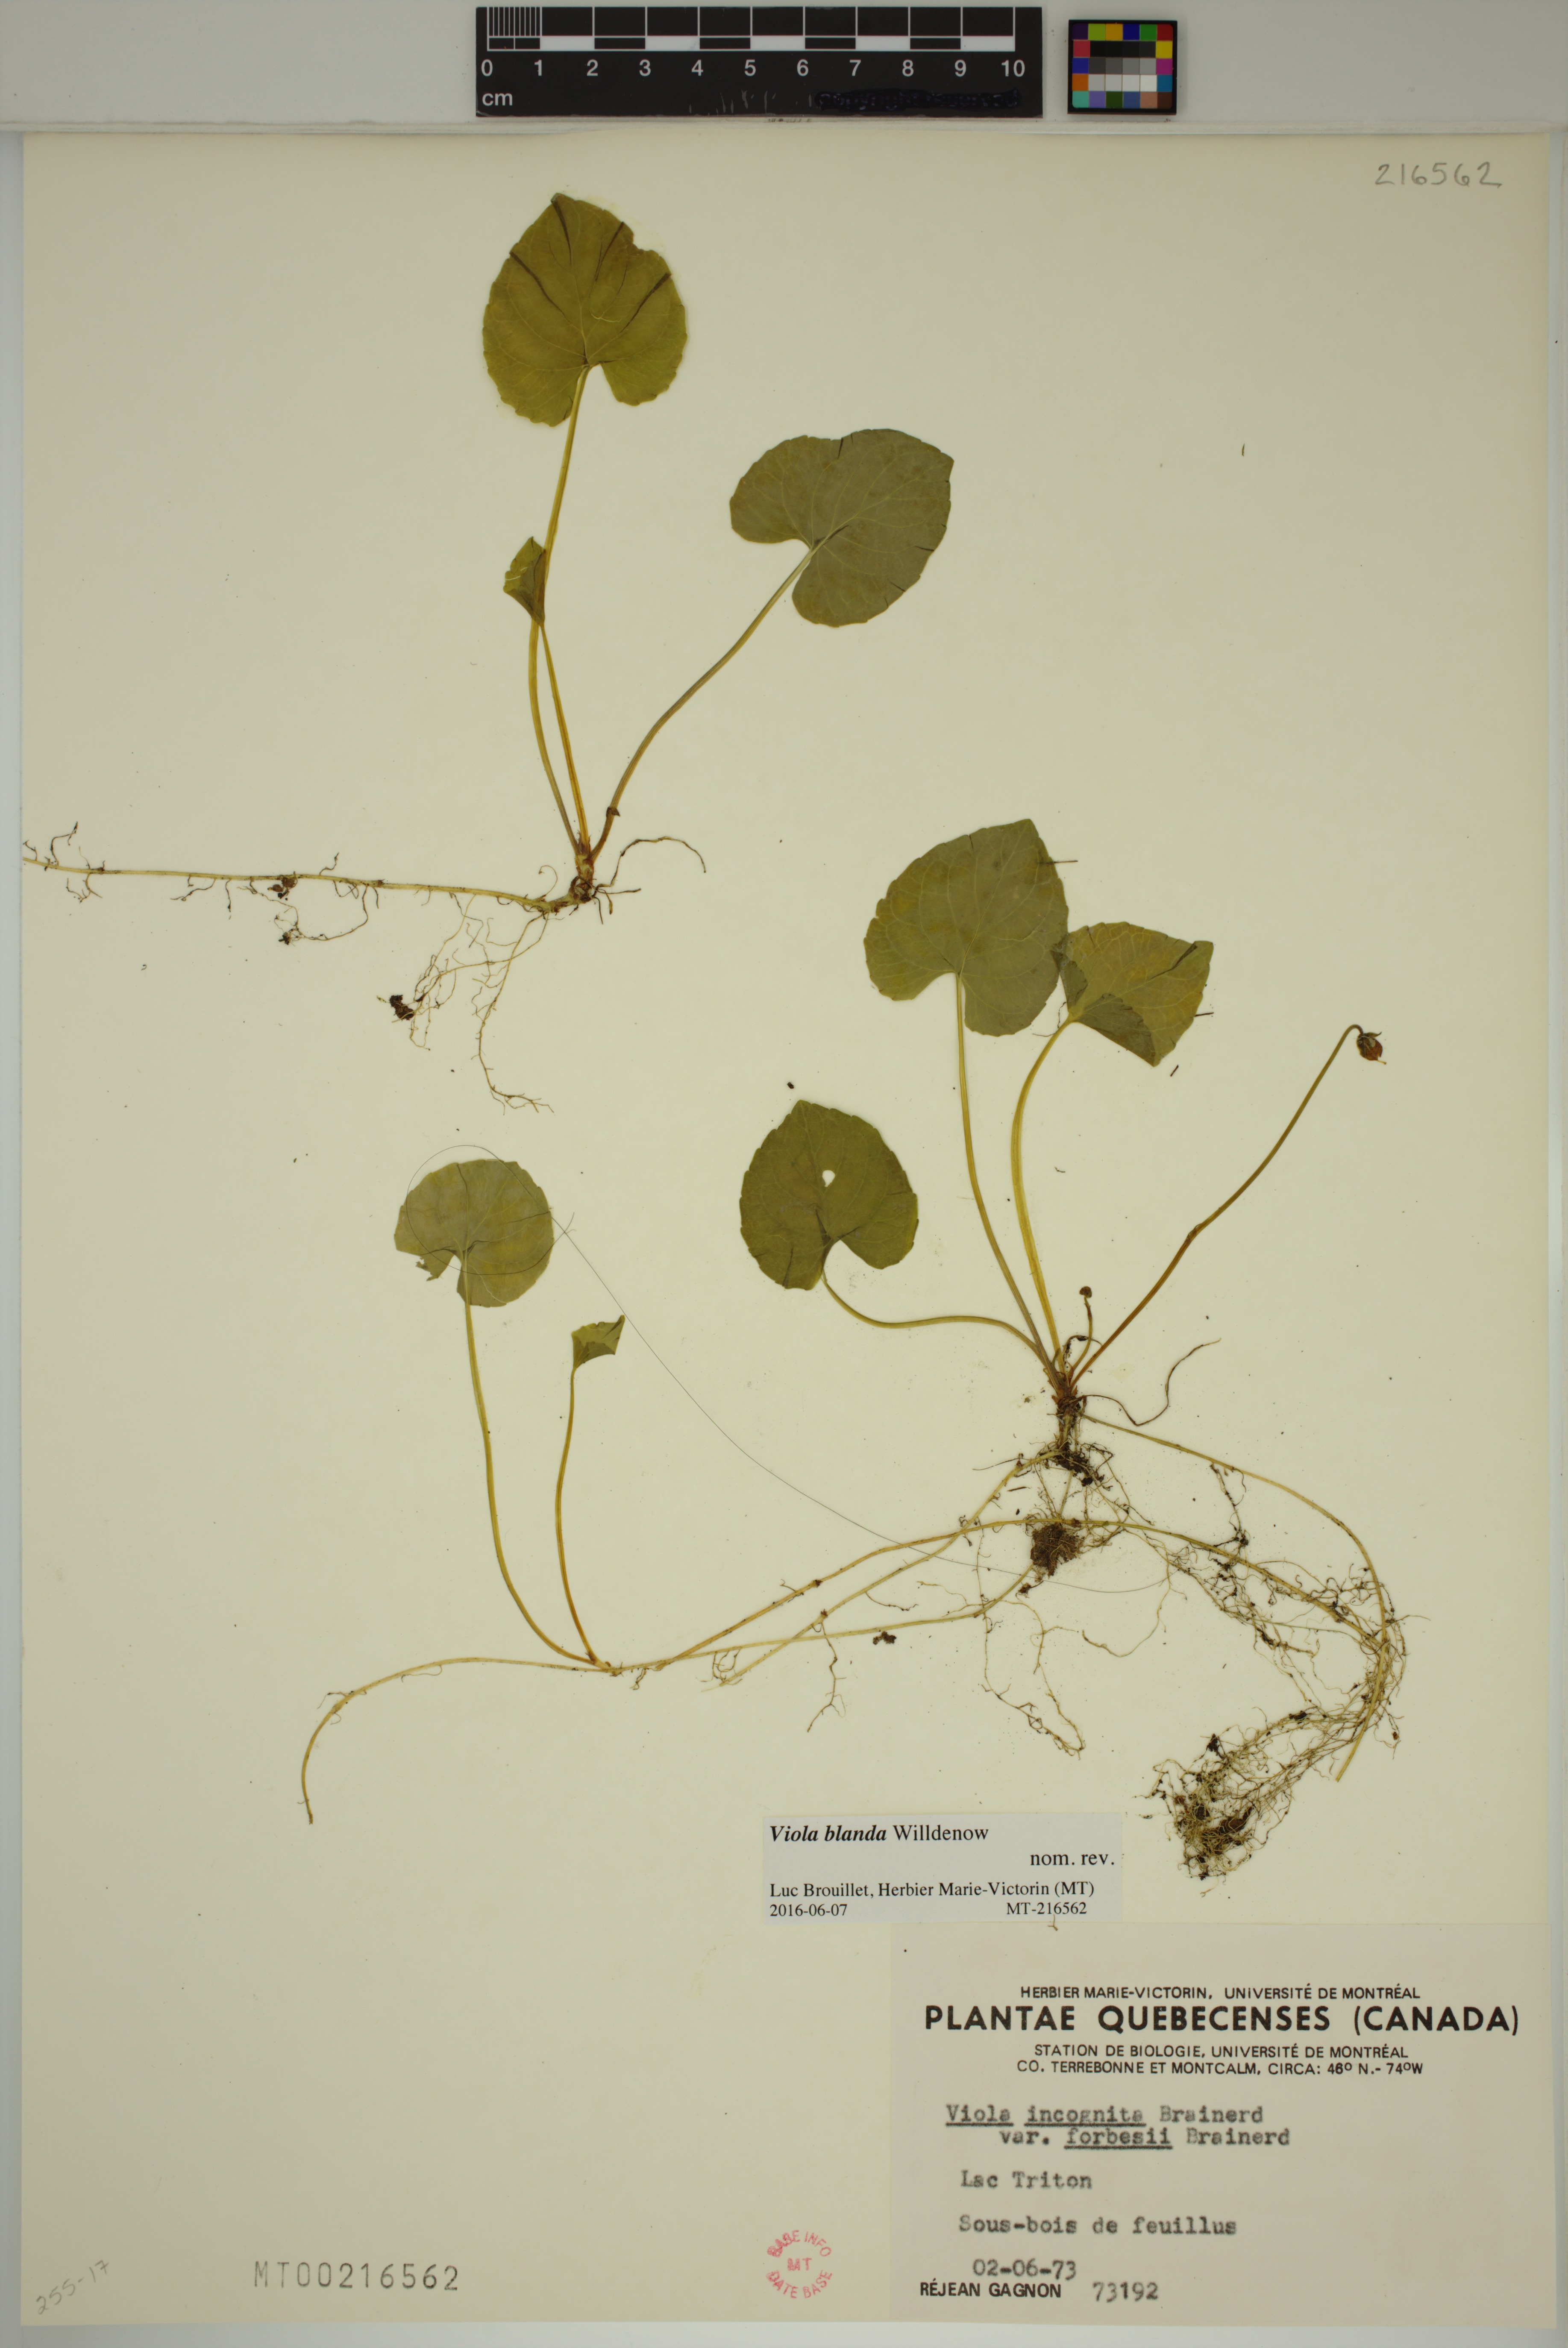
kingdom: Plantae
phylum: Tracheophyta
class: Magnoliopsida
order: Malpighiales
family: Violaceae
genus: Viola
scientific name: Viola blanda
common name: Sweet white violet
